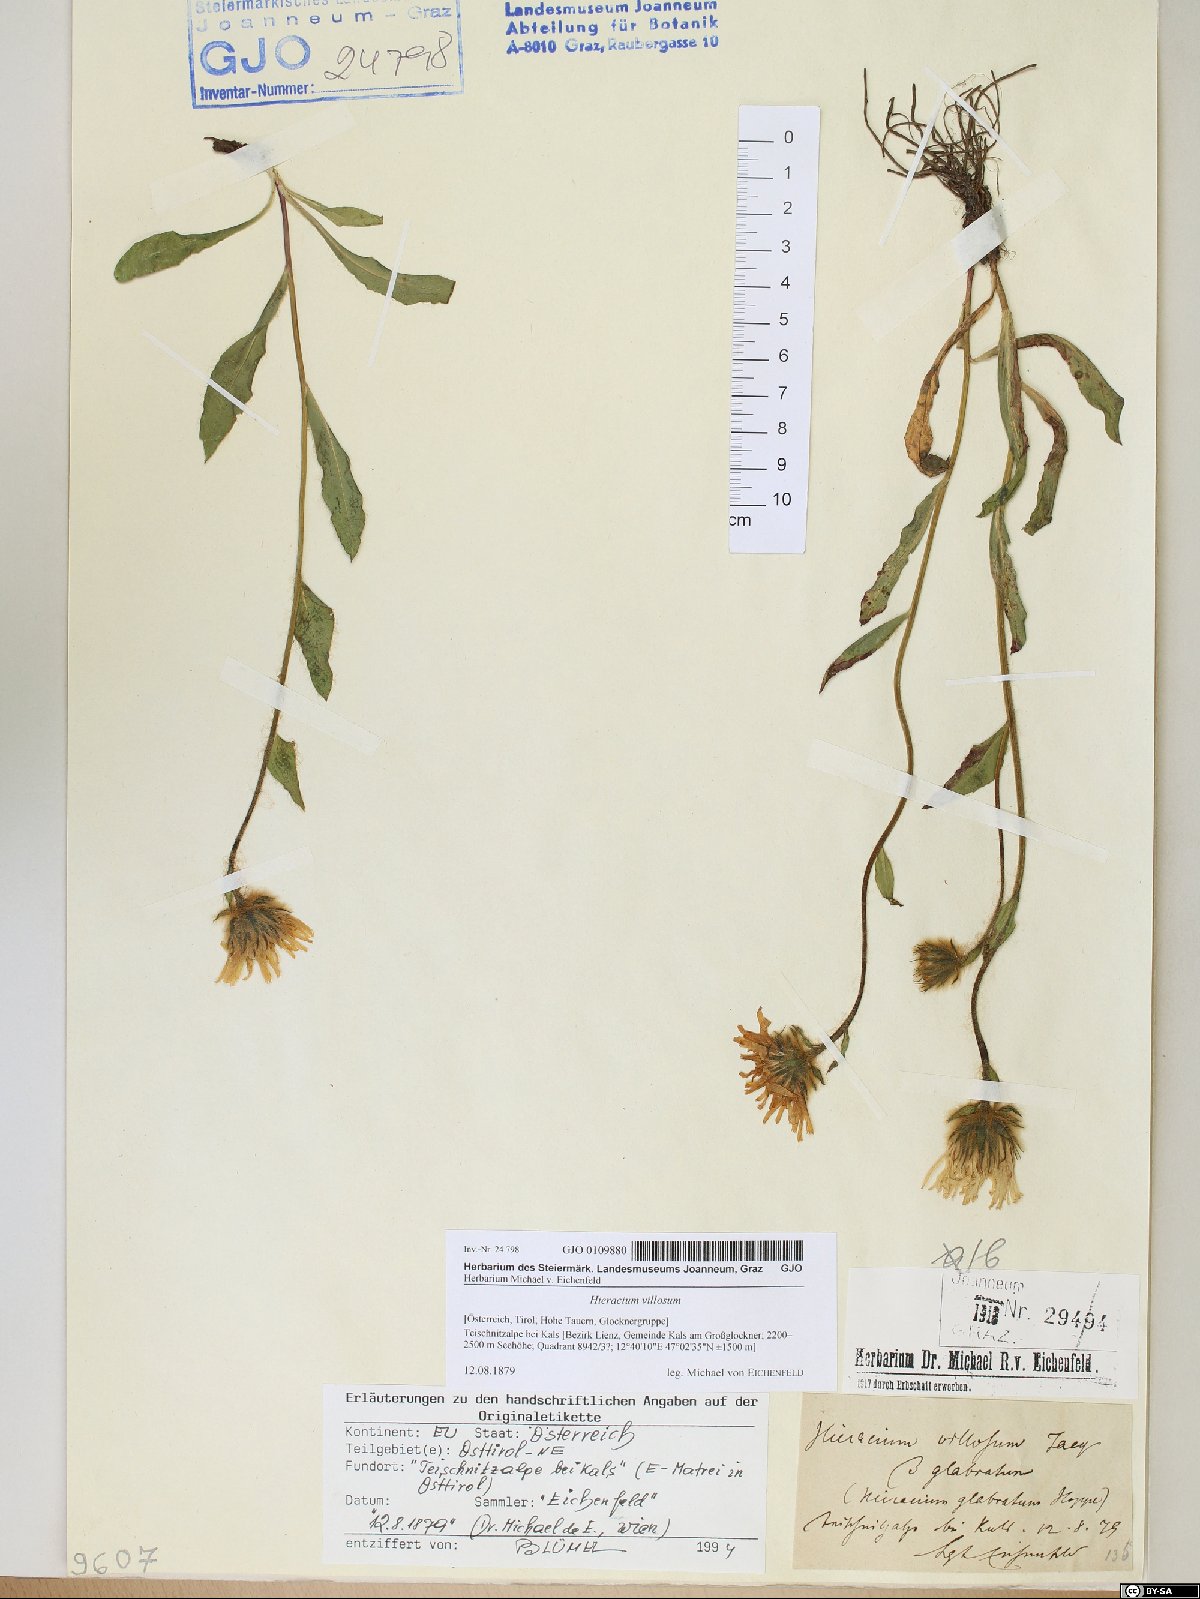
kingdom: Plantae
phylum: Tracheophyta
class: Magnoliopsida
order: Asterales
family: Asteraceae
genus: Hieracium
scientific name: Hieracium villosum
